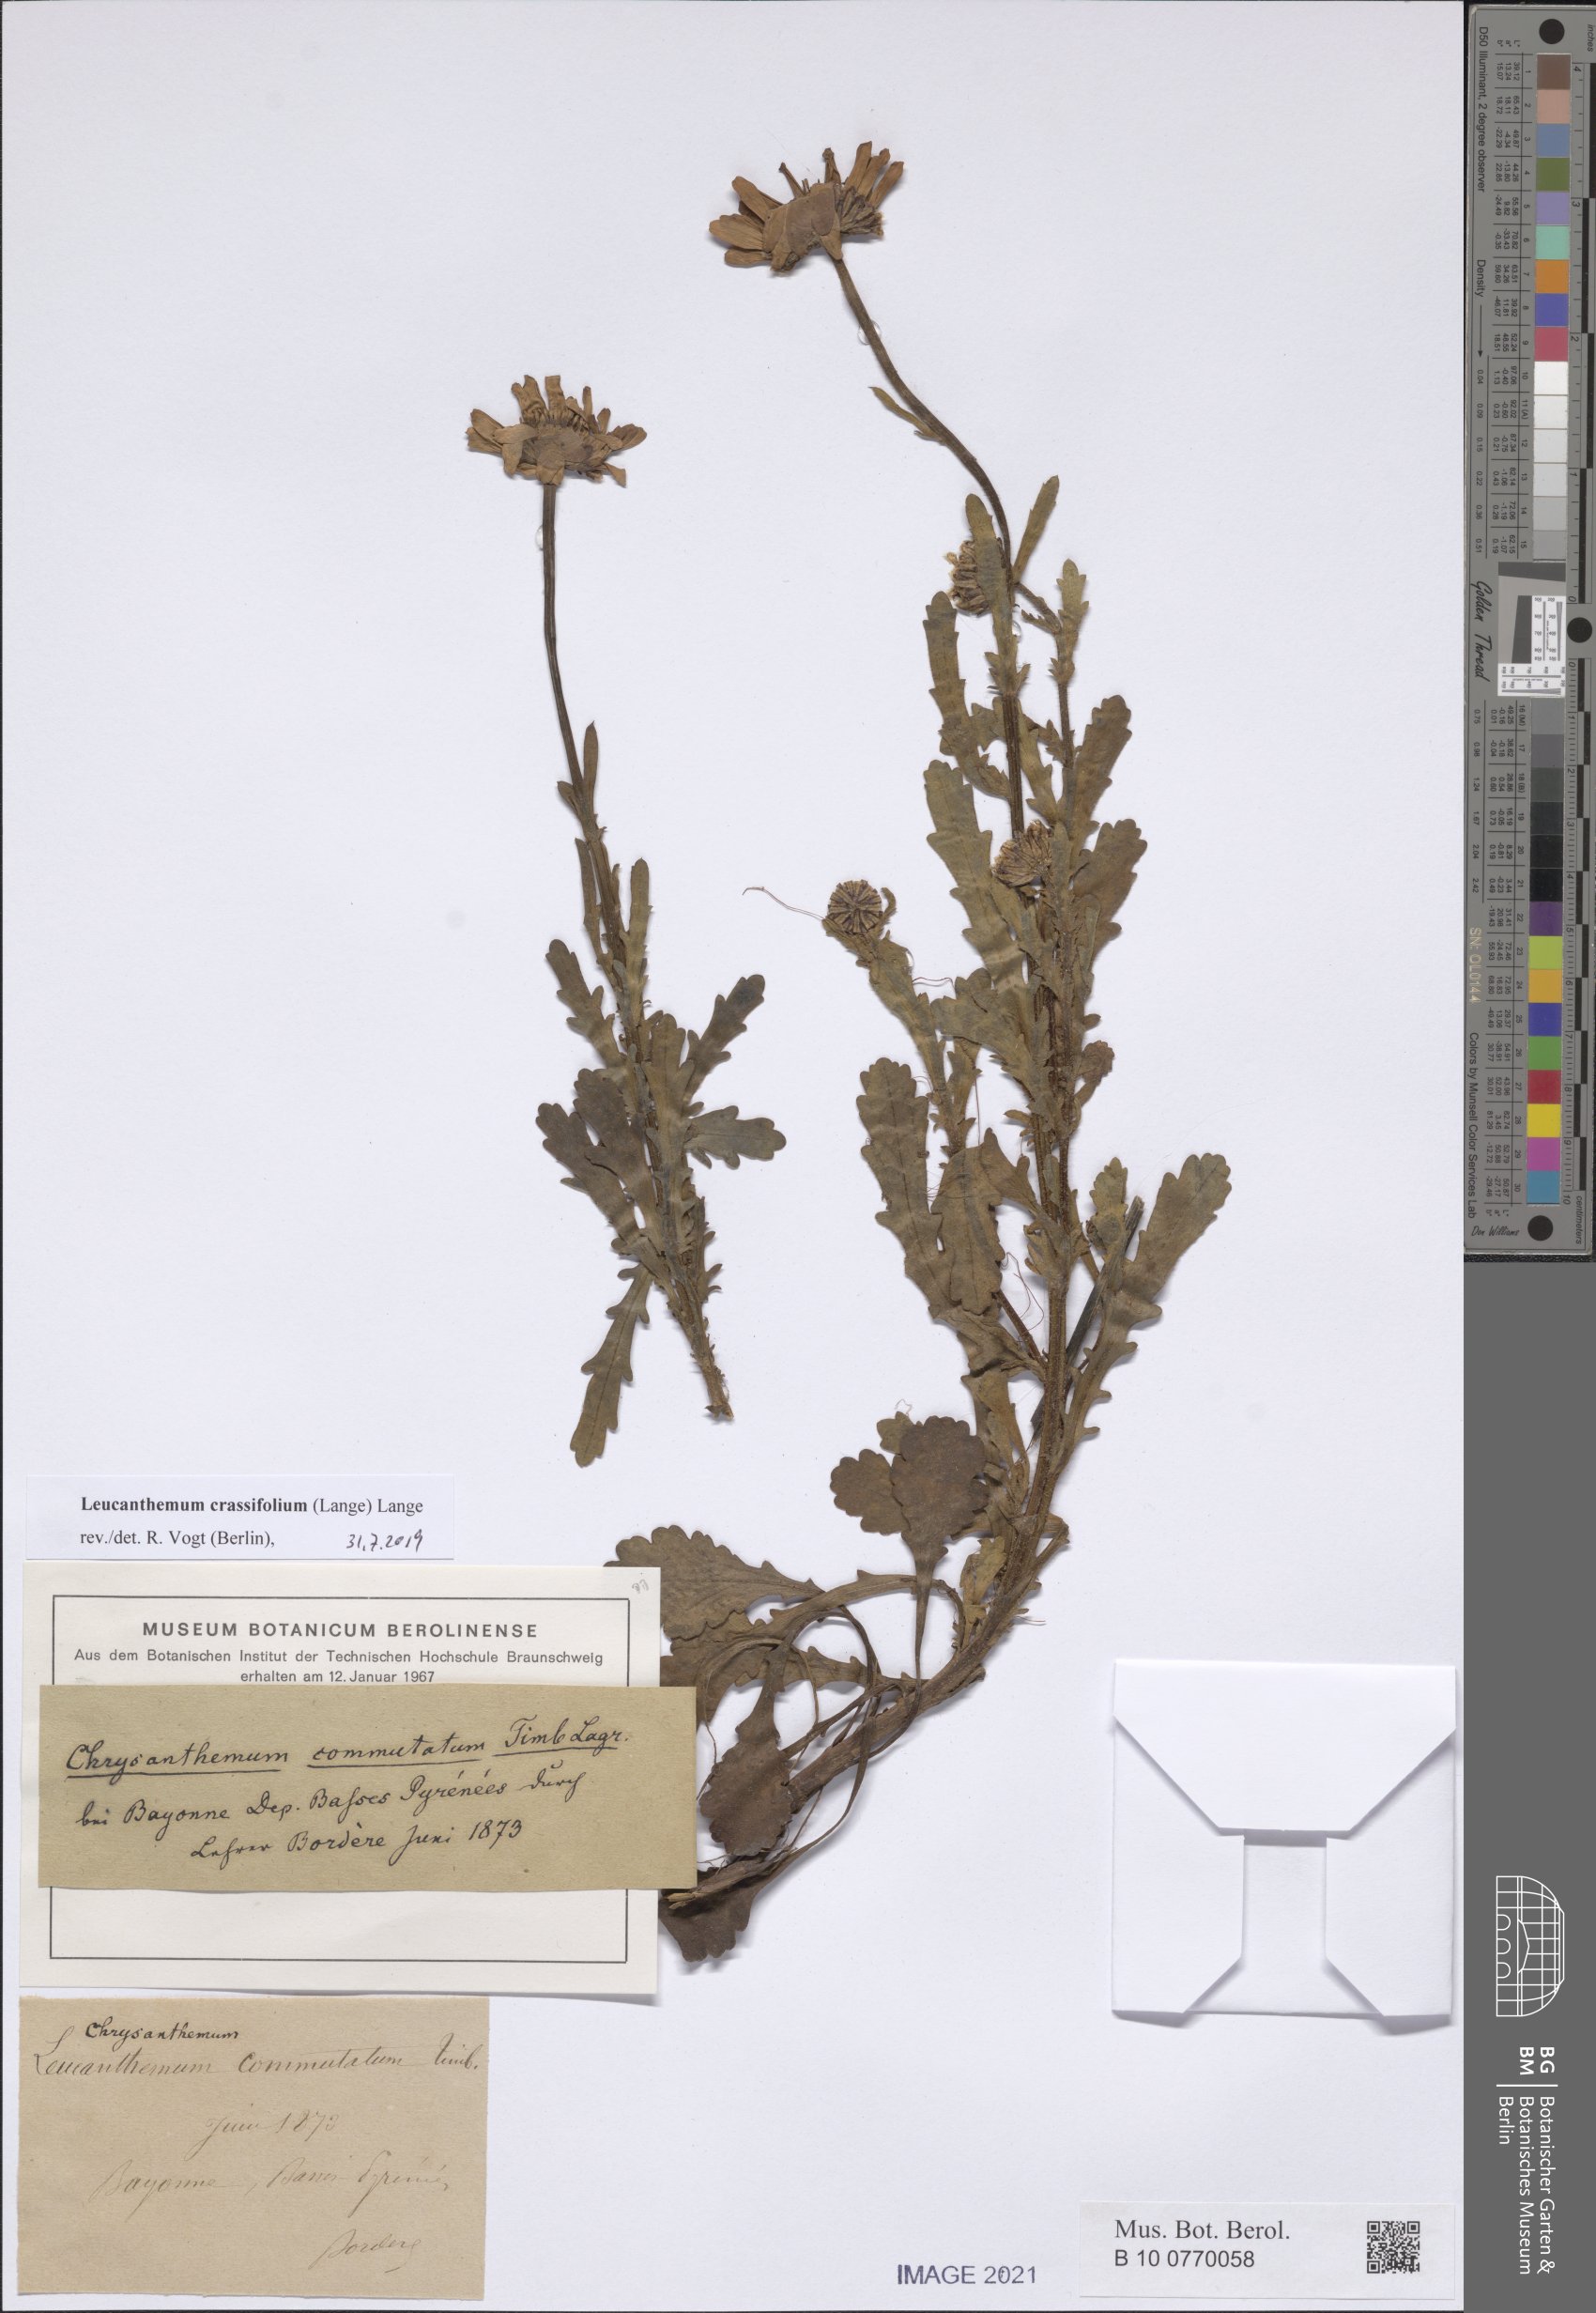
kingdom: Plantae
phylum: Tracheophyta
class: Magnoliopsida
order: Asterales
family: Asteraceae
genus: Leucanthemum
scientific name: Leucanthemum crassifolium
